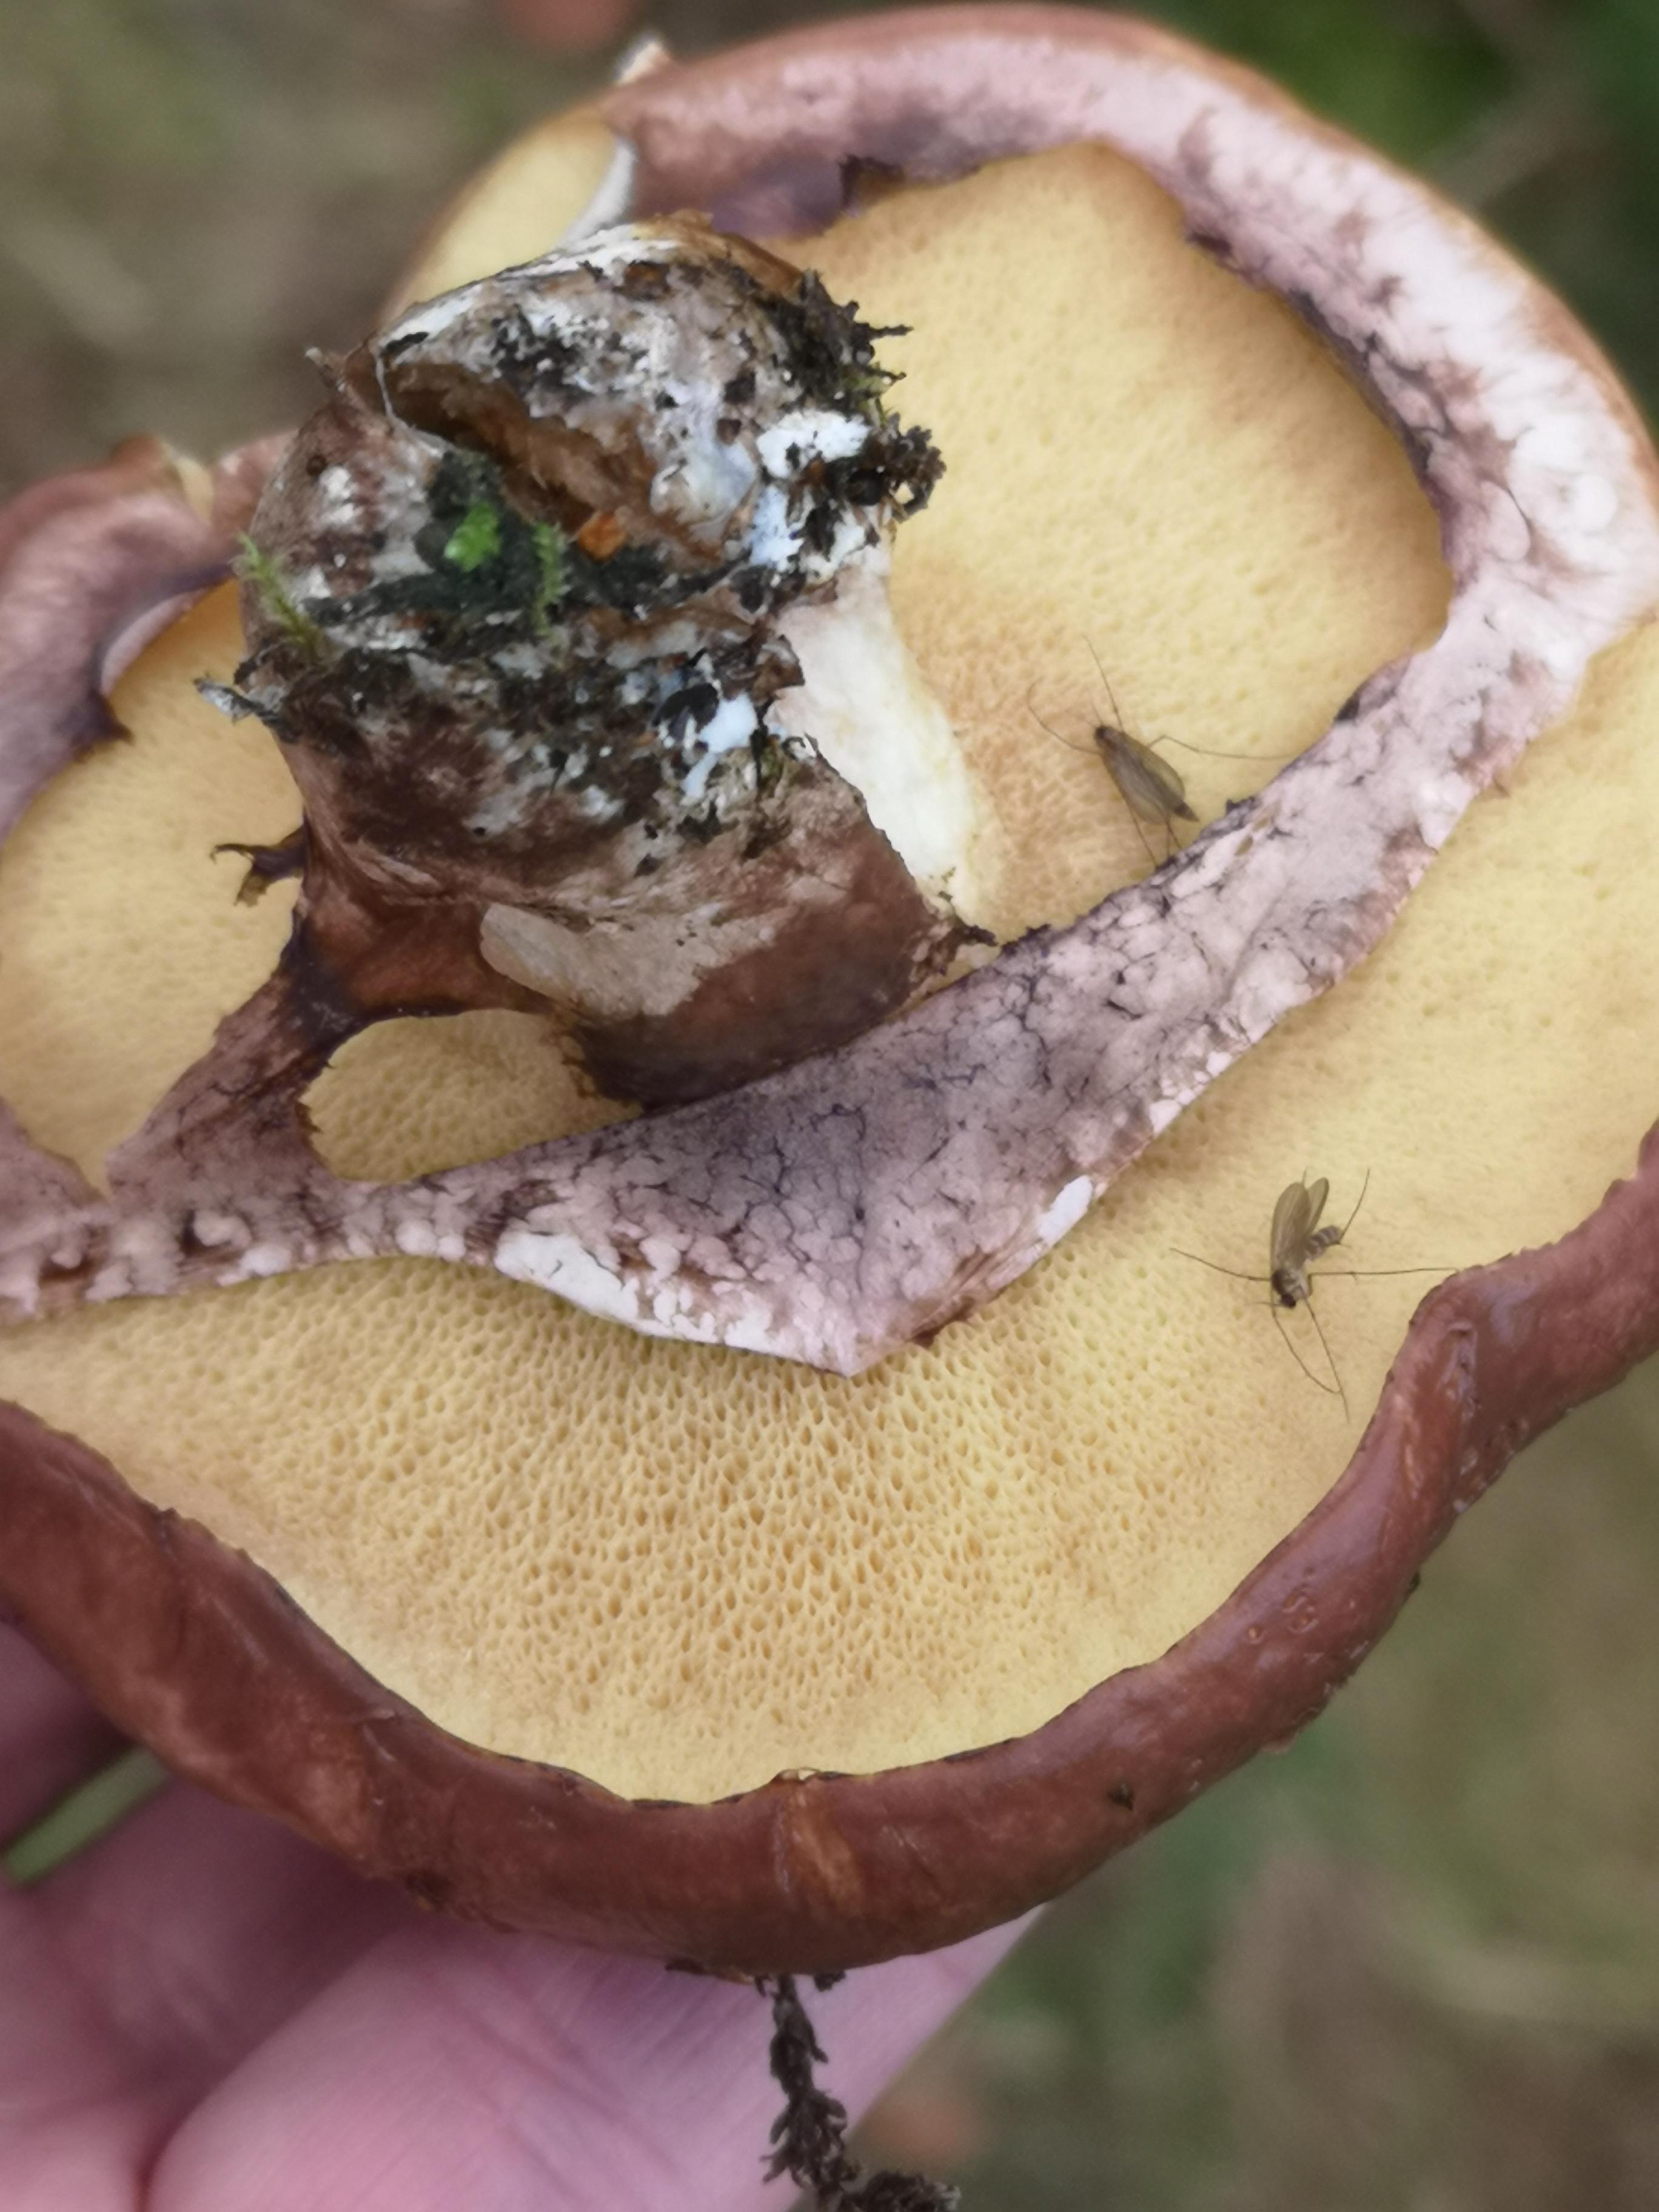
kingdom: Fungi
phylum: Basidiomycota
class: Agaricomycetes
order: Boletales
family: Suillaceae
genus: Suillus
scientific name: Suillus luteus
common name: brungul slimrørhat
